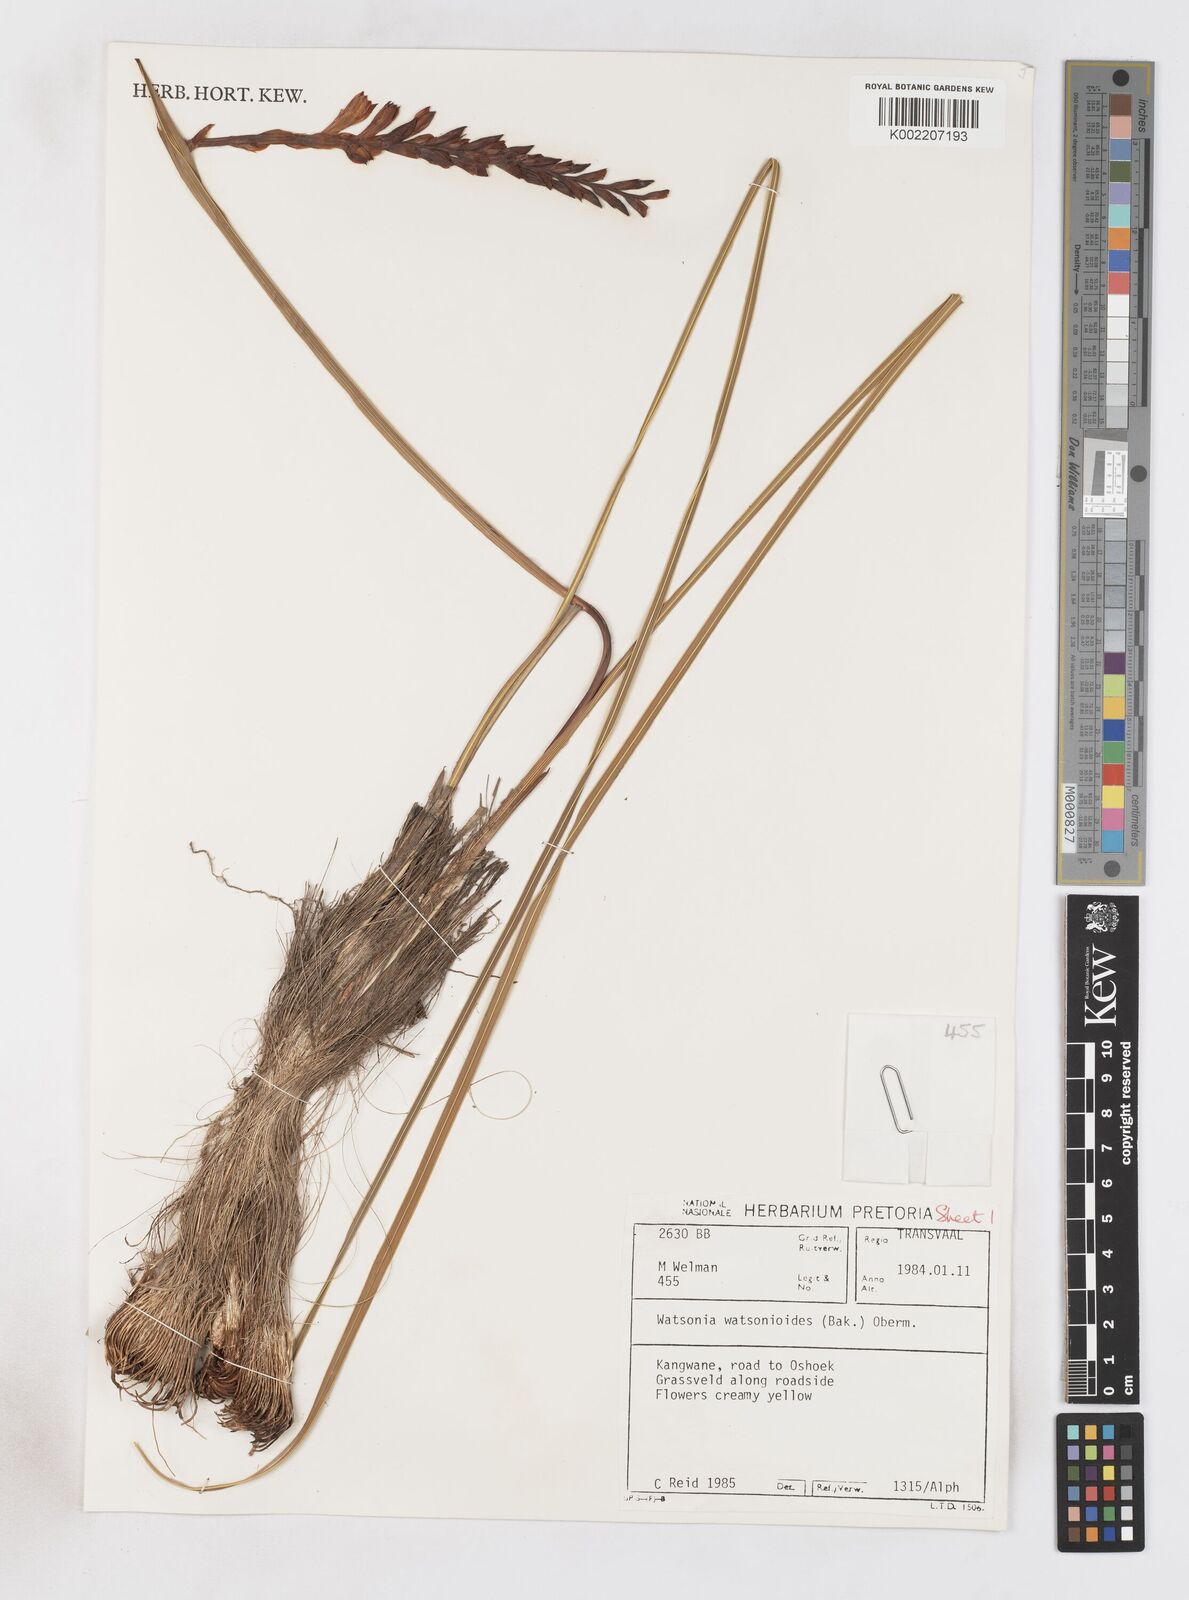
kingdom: Plantae
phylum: Tracheophyta
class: Liliopsida
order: Asparagales
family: Iridaceae
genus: Watsonia
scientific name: Watsonia watsonioides
